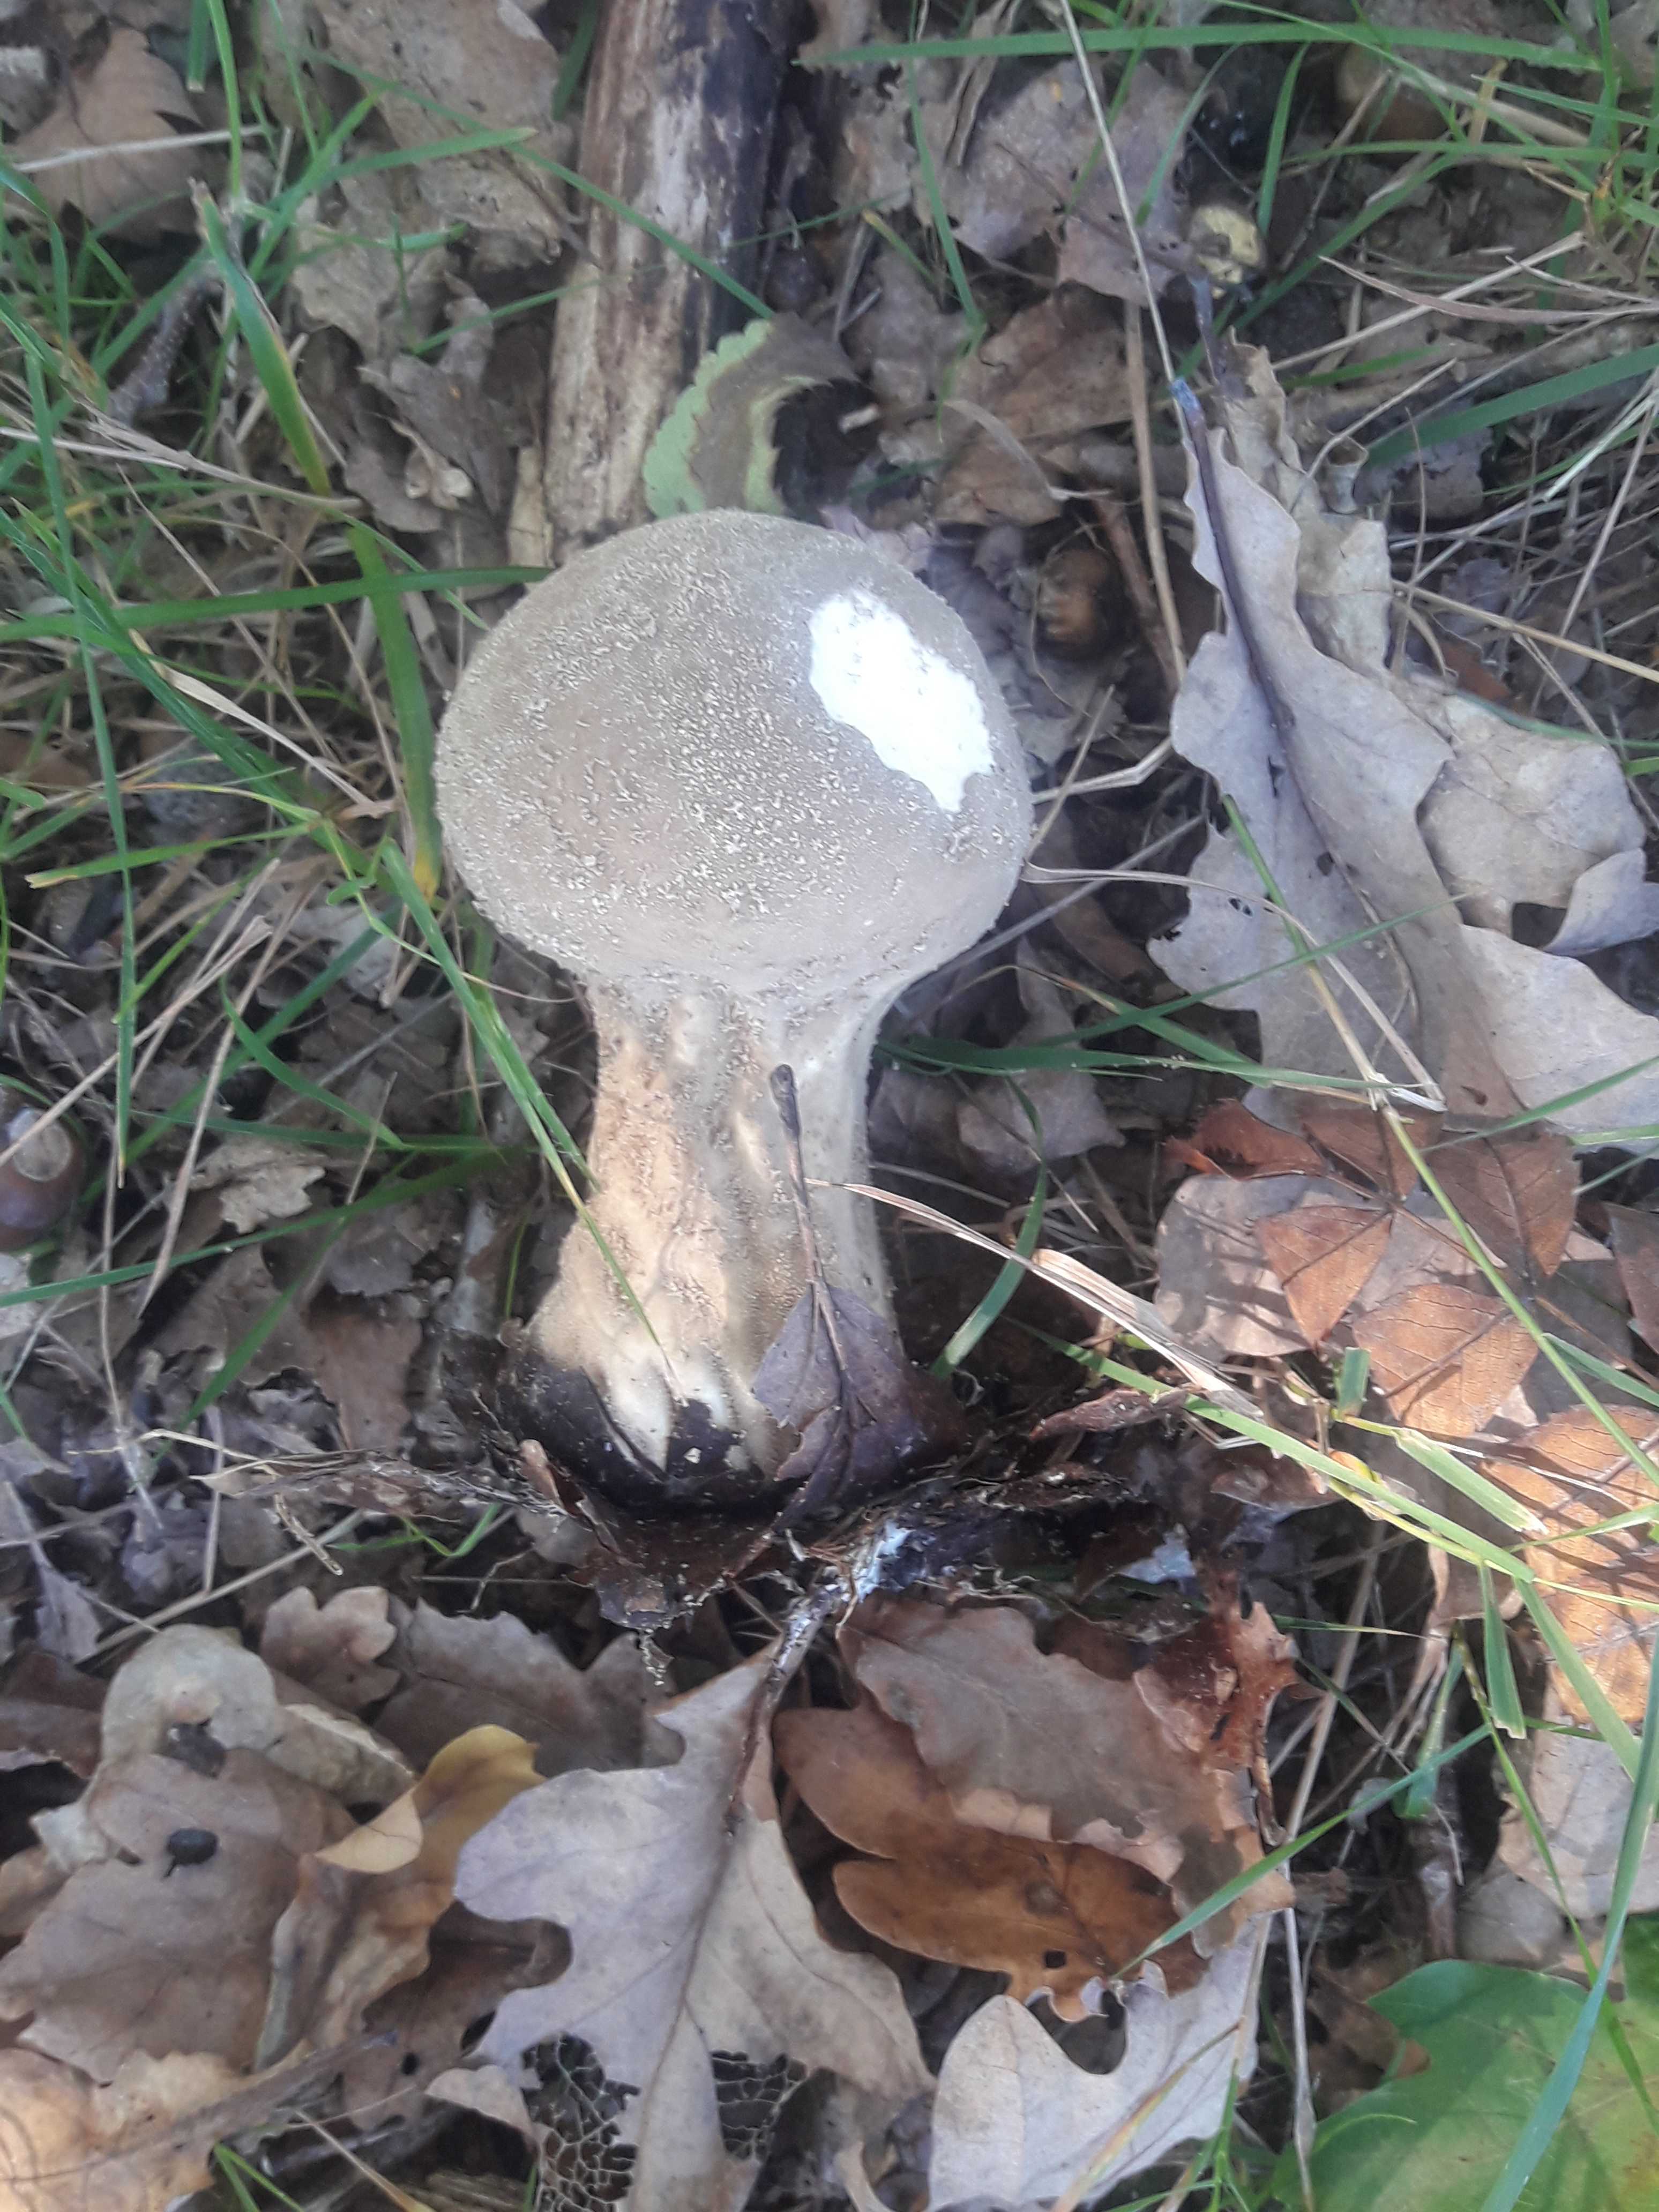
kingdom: Fungi
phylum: Basidiomycota
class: Agaricomycetes
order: Agaricales
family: Lycoperdaceae
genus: Lycoperdon
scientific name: Lycoperdon excipuliforme
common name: højstokket støvbold
